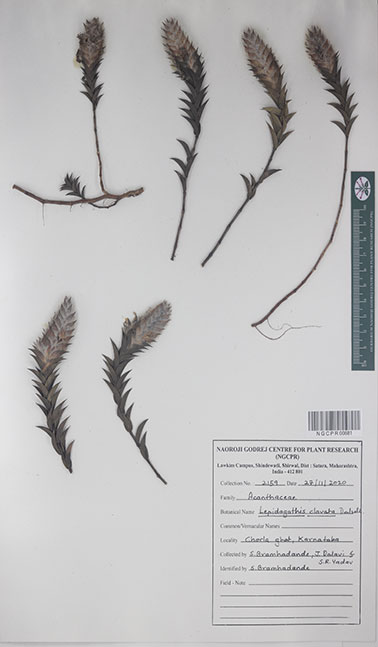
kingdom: Plantae
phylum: Tracheophyta
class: Magnoliopsida
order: Lamiales
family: Acanthaceae
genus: Lepidagathis
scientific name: Lepidagathis clavata
